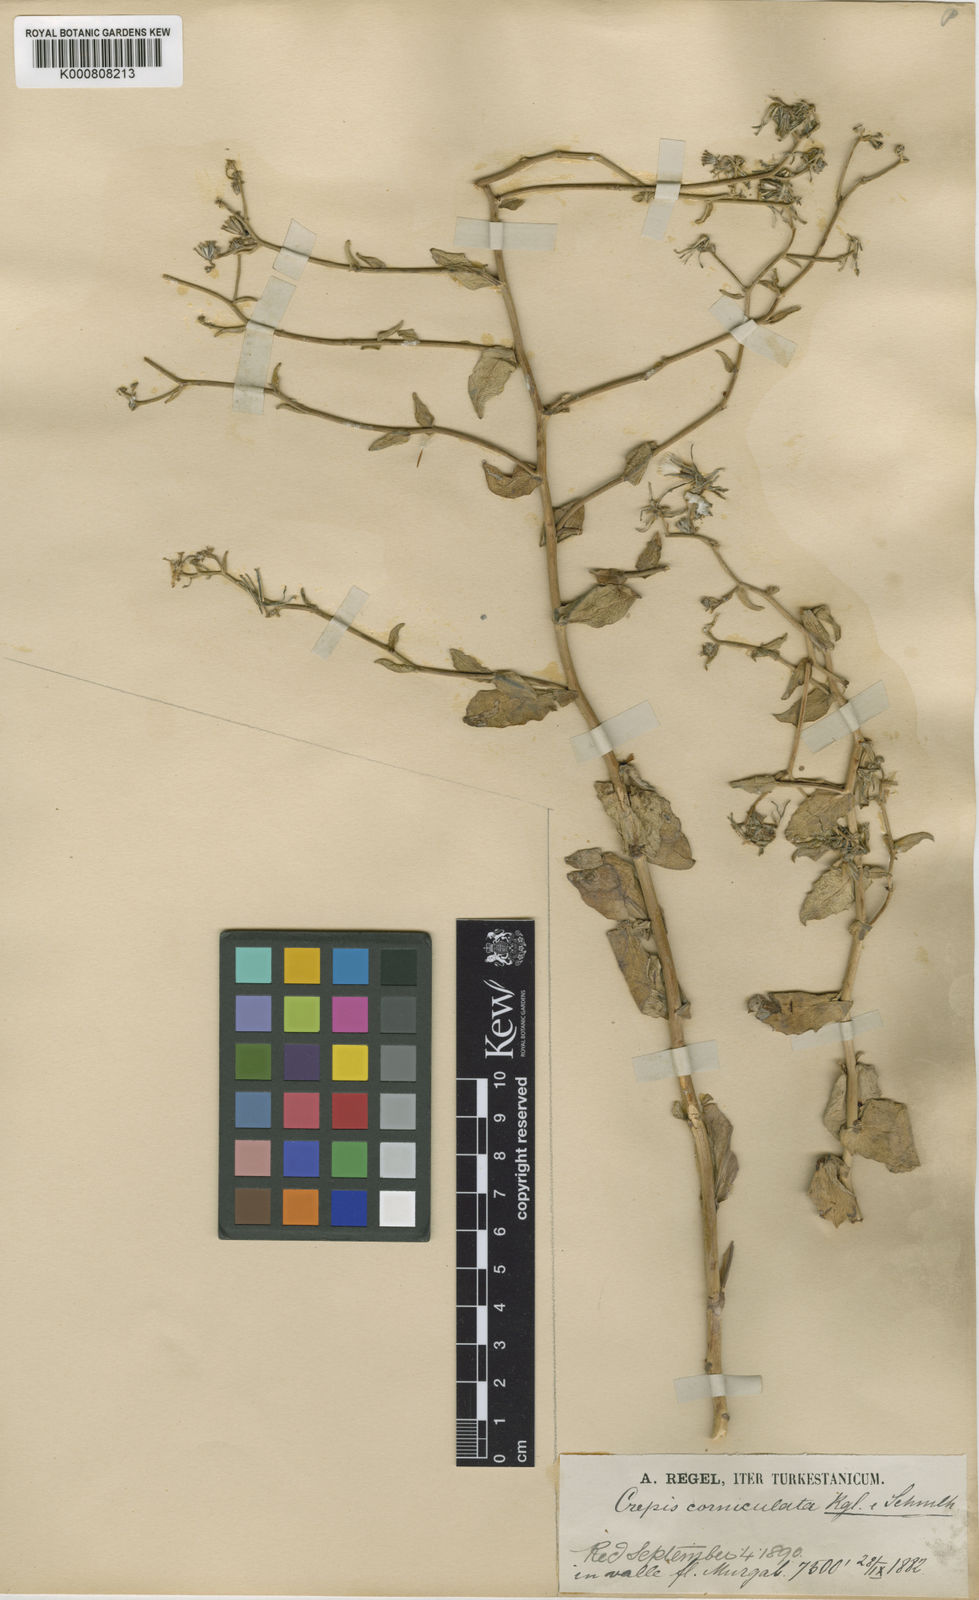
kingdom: Plantae
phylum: Tracheophyta
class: Magnoliopsida
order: Asterales
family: Asteraceae
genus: Youngia
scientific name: Youngia corniculata
